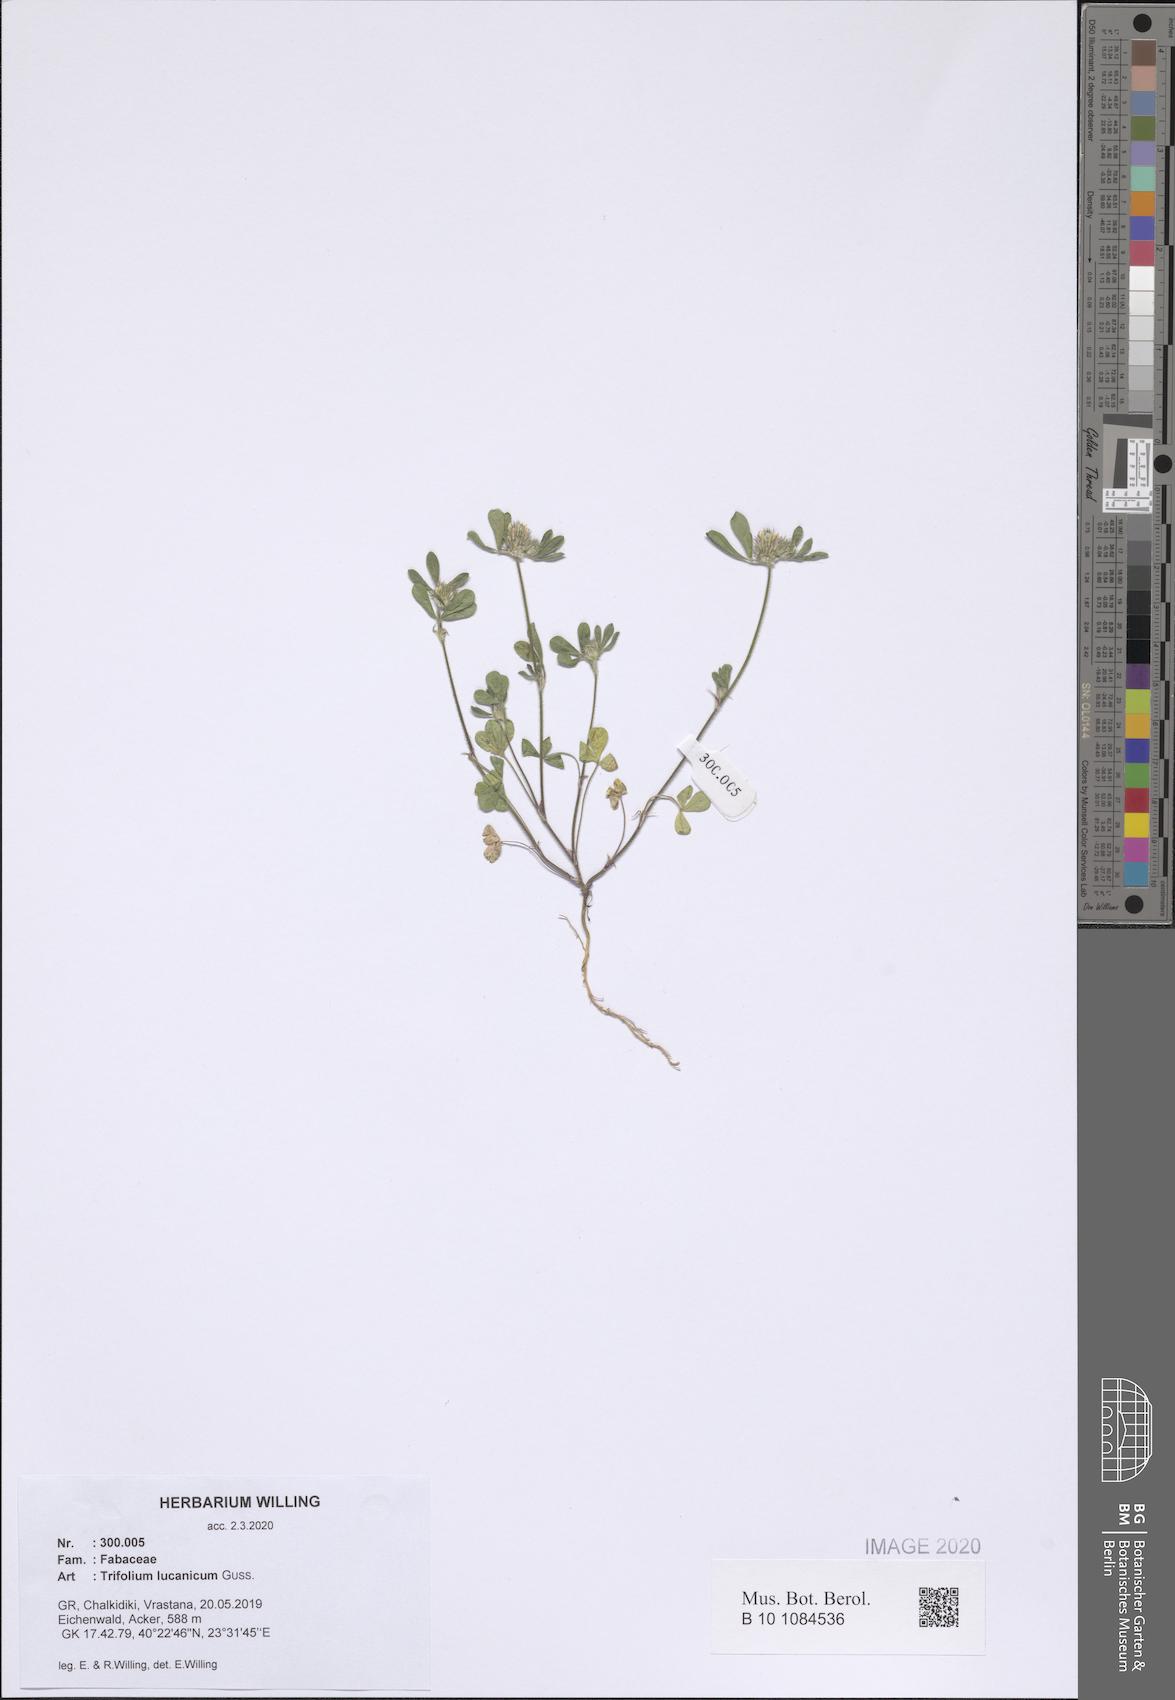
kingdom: Plantae
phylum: Tracheophyta
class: Magnoliopsida
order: Fabales
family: Fabaceae
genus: Trifolium
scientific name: Trifolium lucanicum
